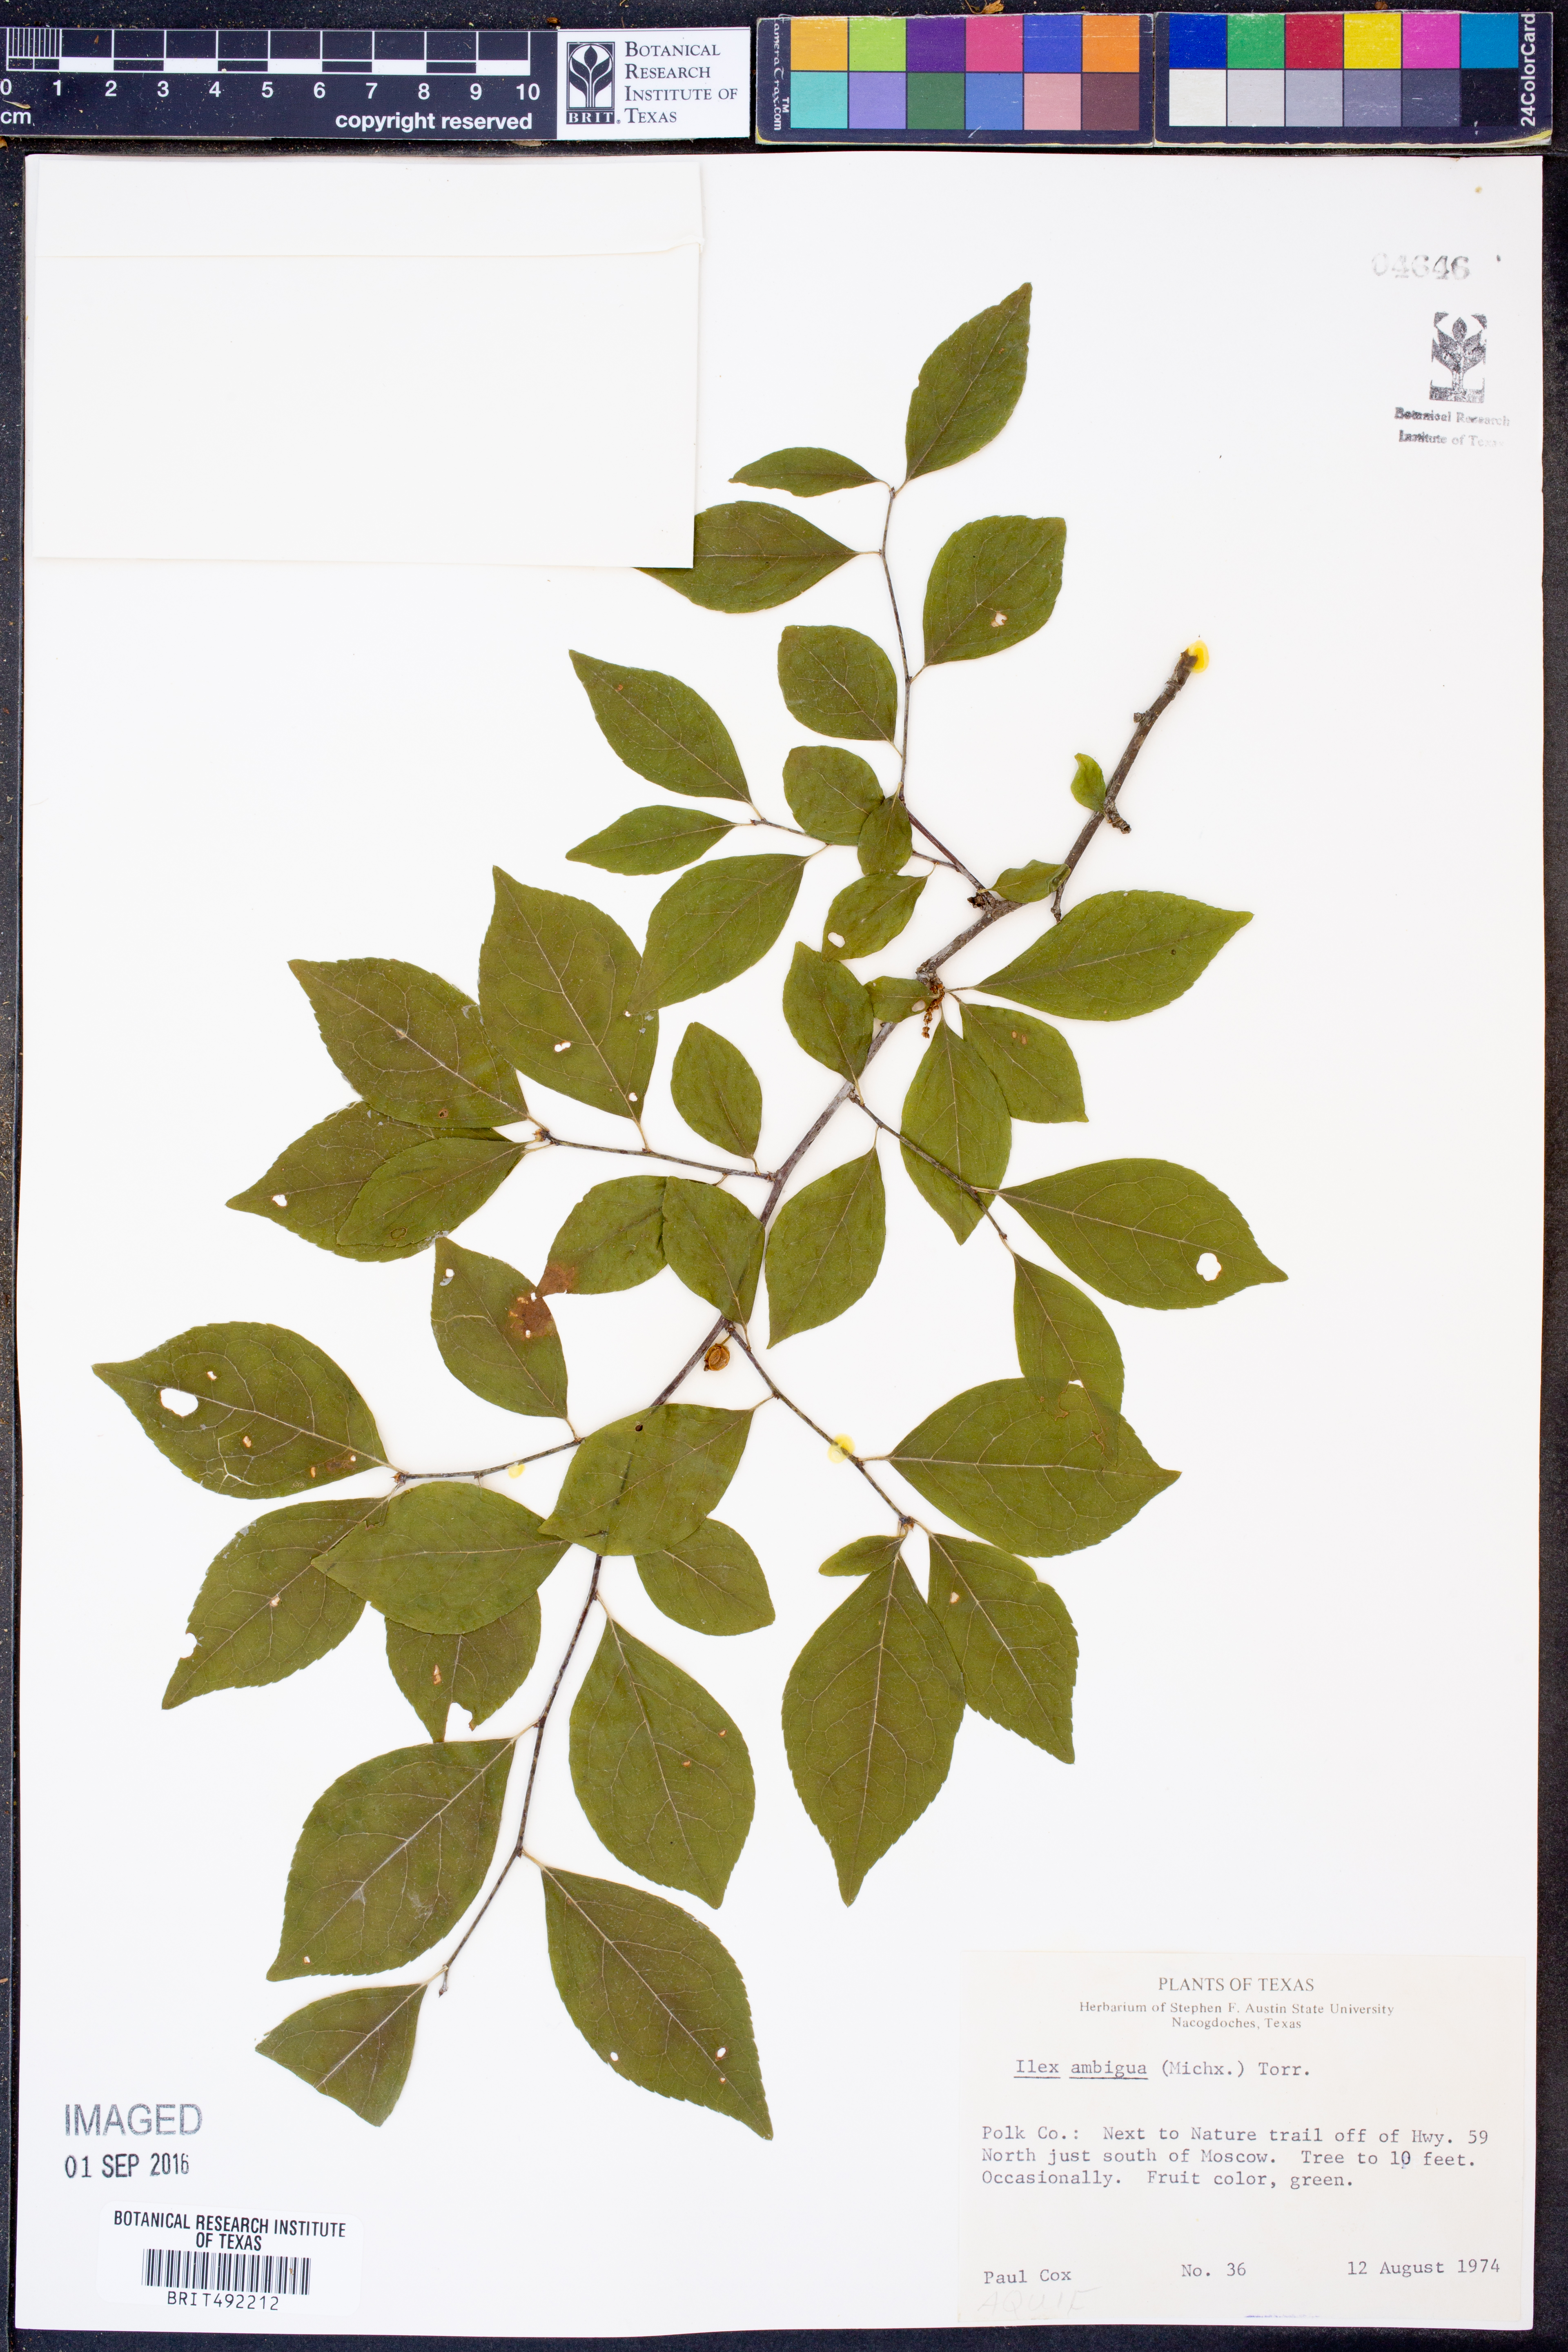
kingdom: Plantae
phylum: Tracheophyta
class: Magnoliopsida
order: Aquifoliales
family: Aquifoliaceae
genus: Ilex
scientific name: Ilex ambigua
